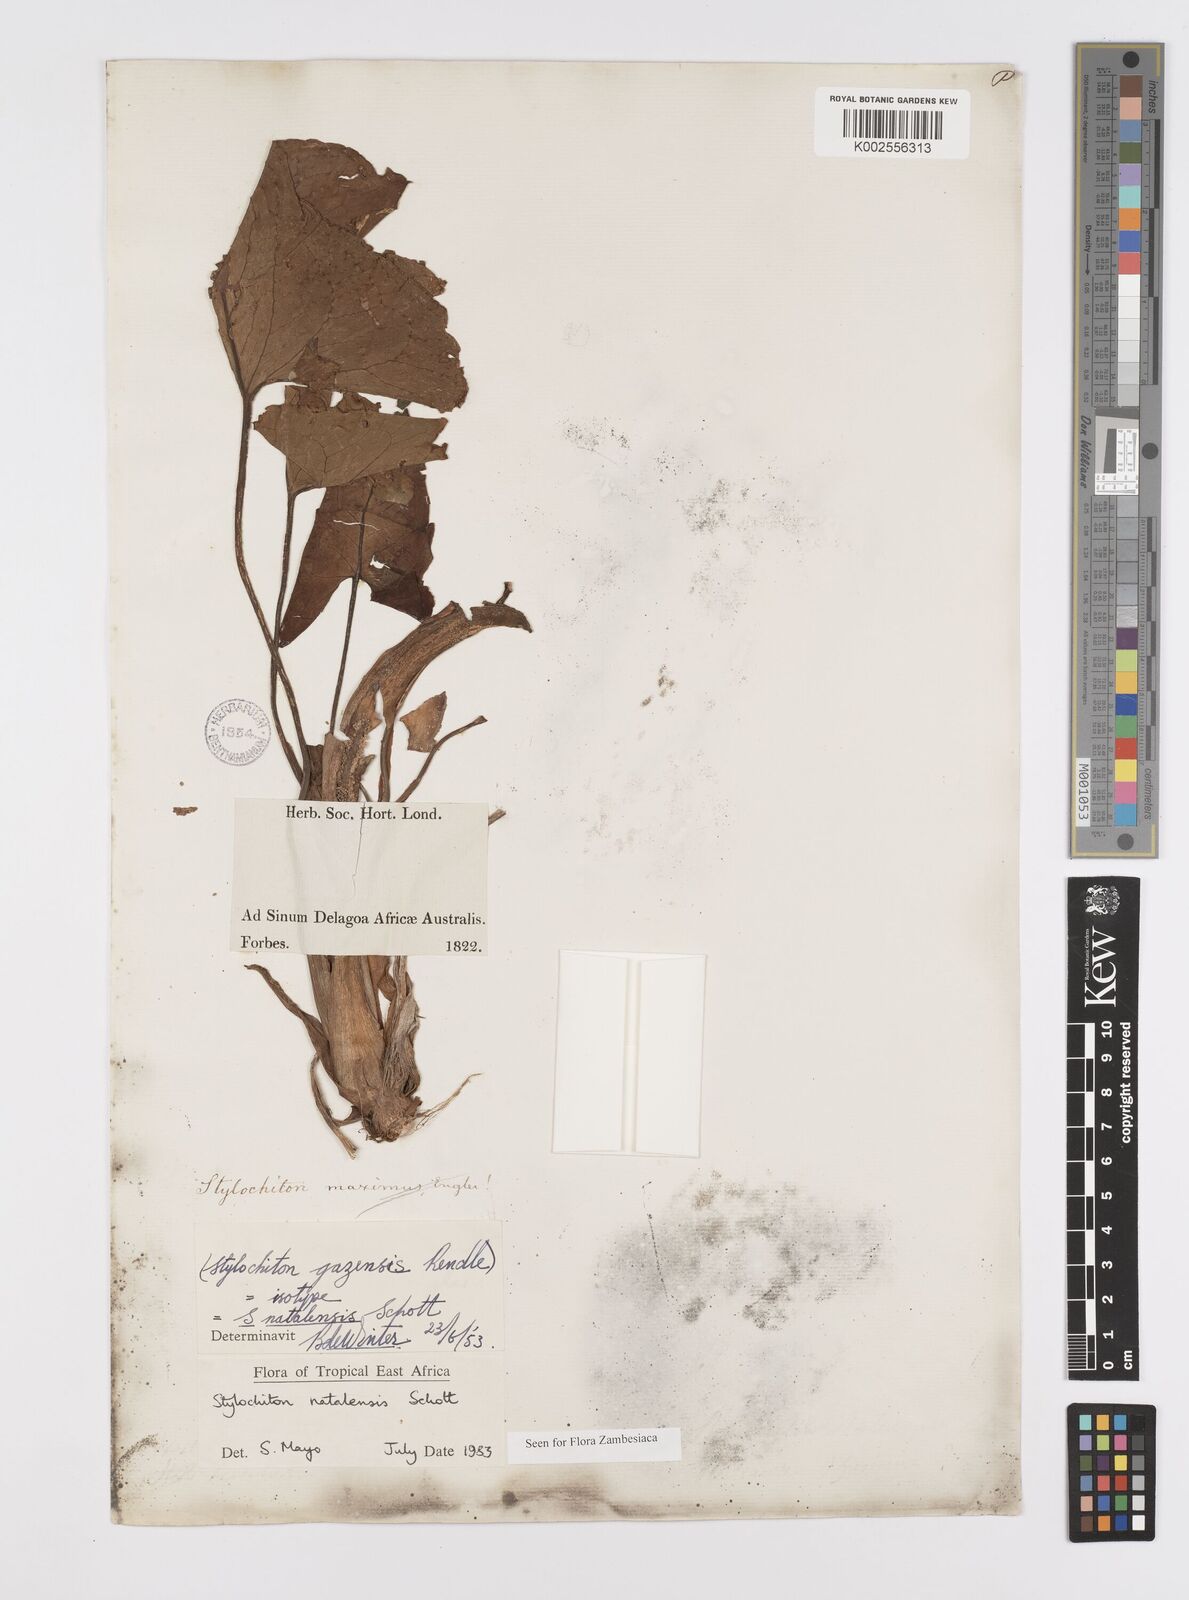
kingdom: Plantae
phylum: Tracheophyta
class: Liliopsida
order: Alismatales
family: Araceae
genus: Stylochaeton
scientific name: Stylochaeton natalense
